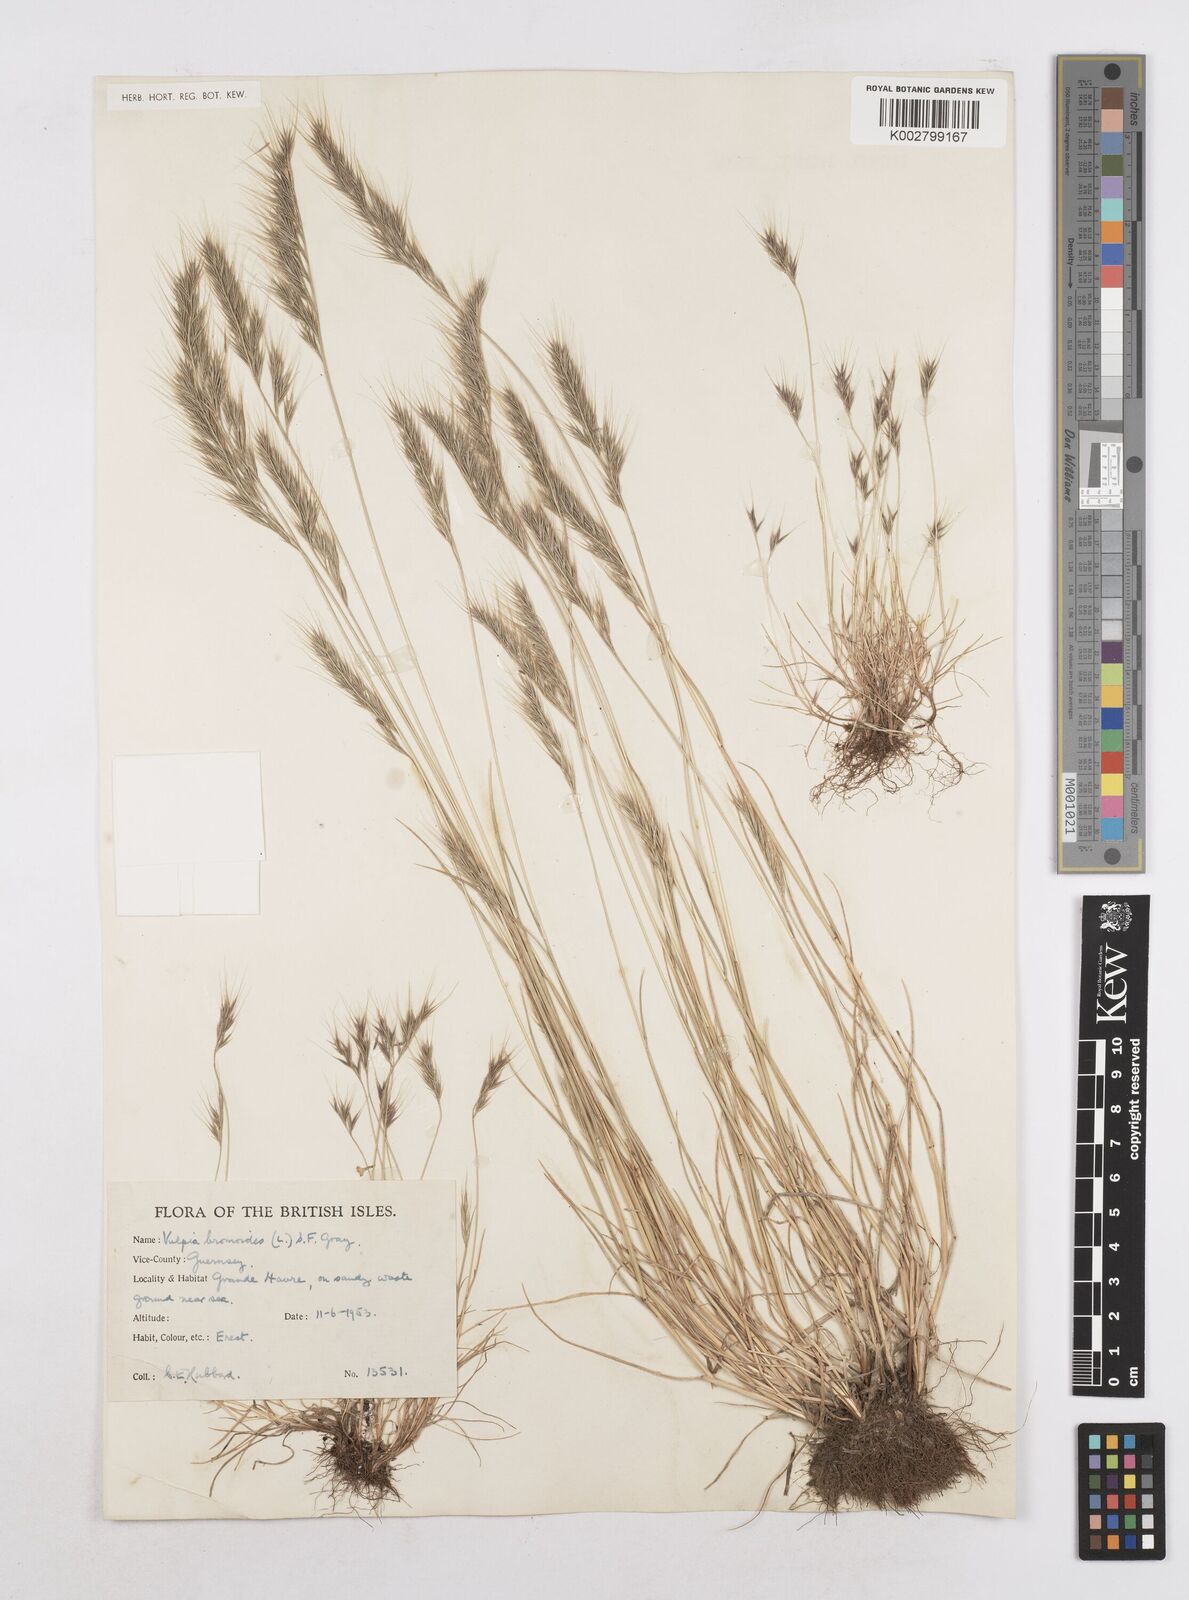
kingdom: Plantae
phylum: Tracheophyta
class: Liliopsida
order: Poales
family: Poaceae
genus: Festuca
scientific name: Festuca bromoides
